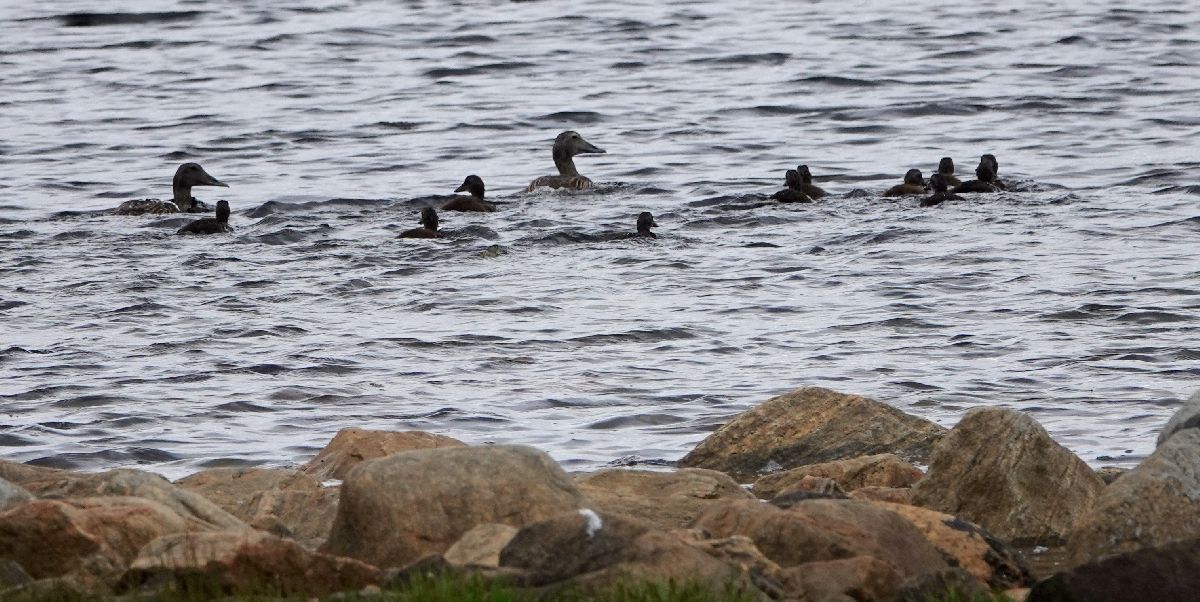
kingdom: Animalia
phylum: Chordata
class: Aves
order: Anseriformes
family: Anatidae
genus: Somateria
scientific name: Somateria mollissima
